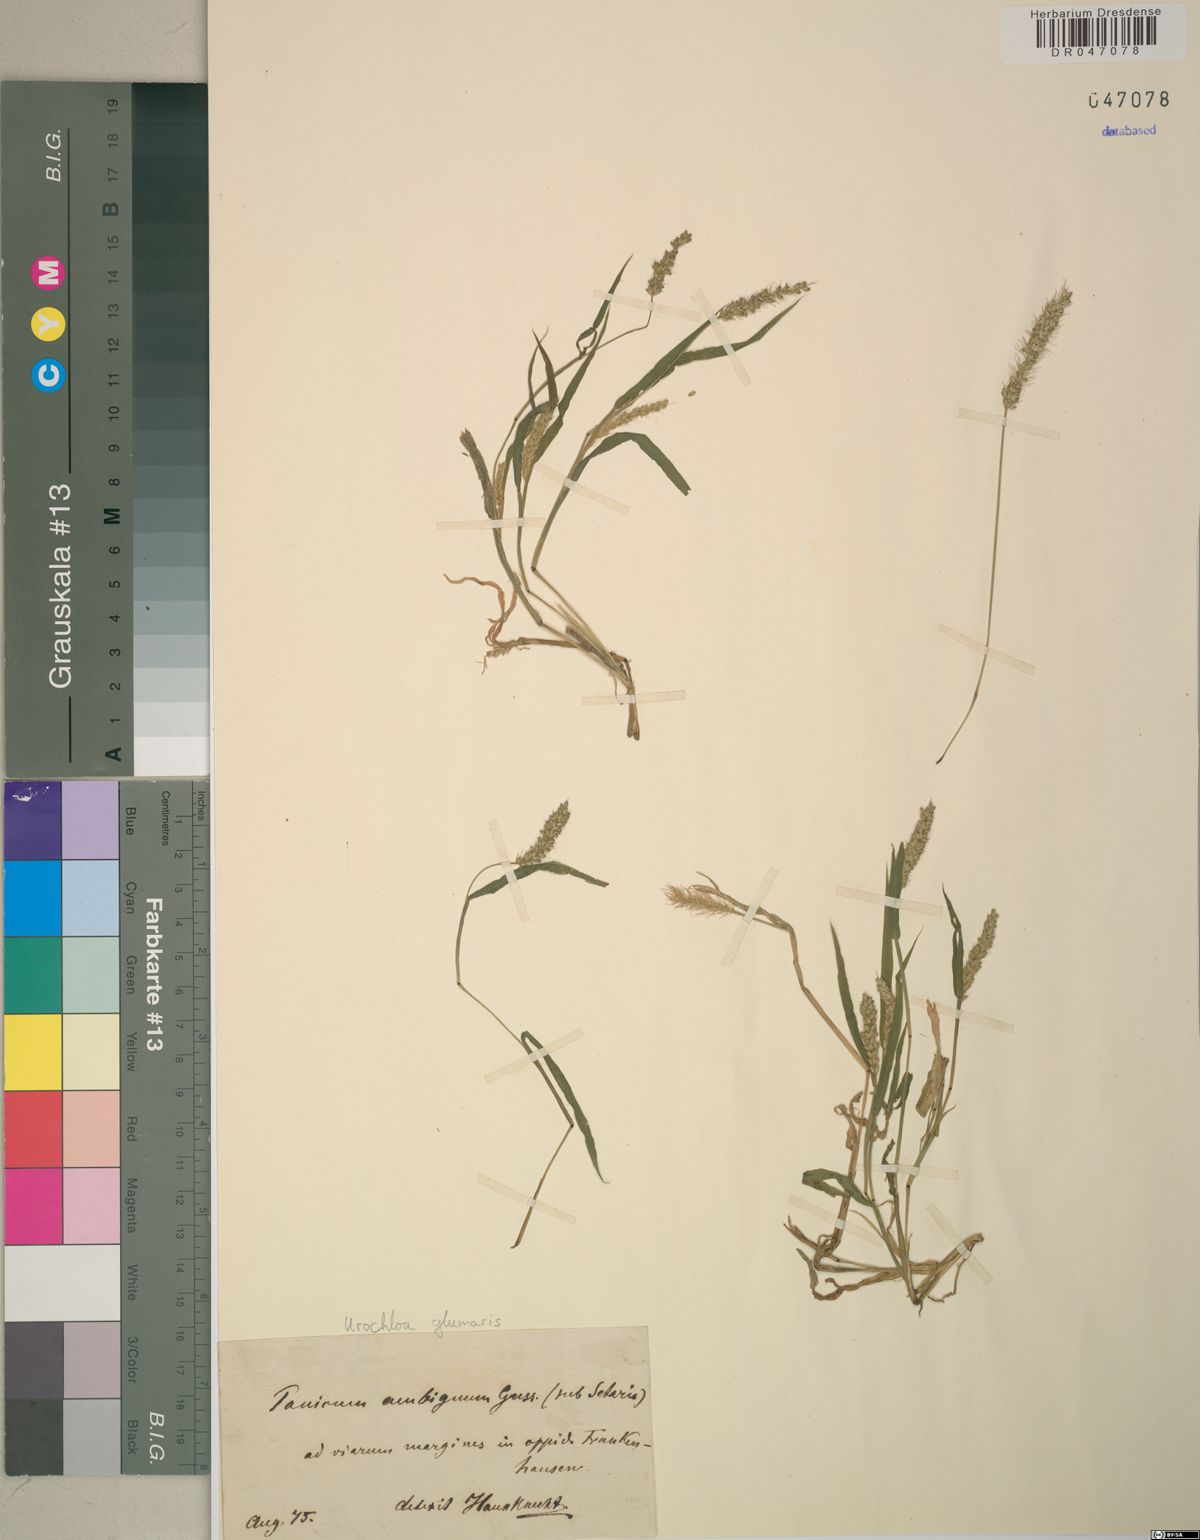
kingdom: Plantae
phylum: Tracheophyta
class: Liliopsida
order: Poales
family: Poaceae
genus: Urochloa
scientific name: Urochloa glumaris
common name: Thurston grass
